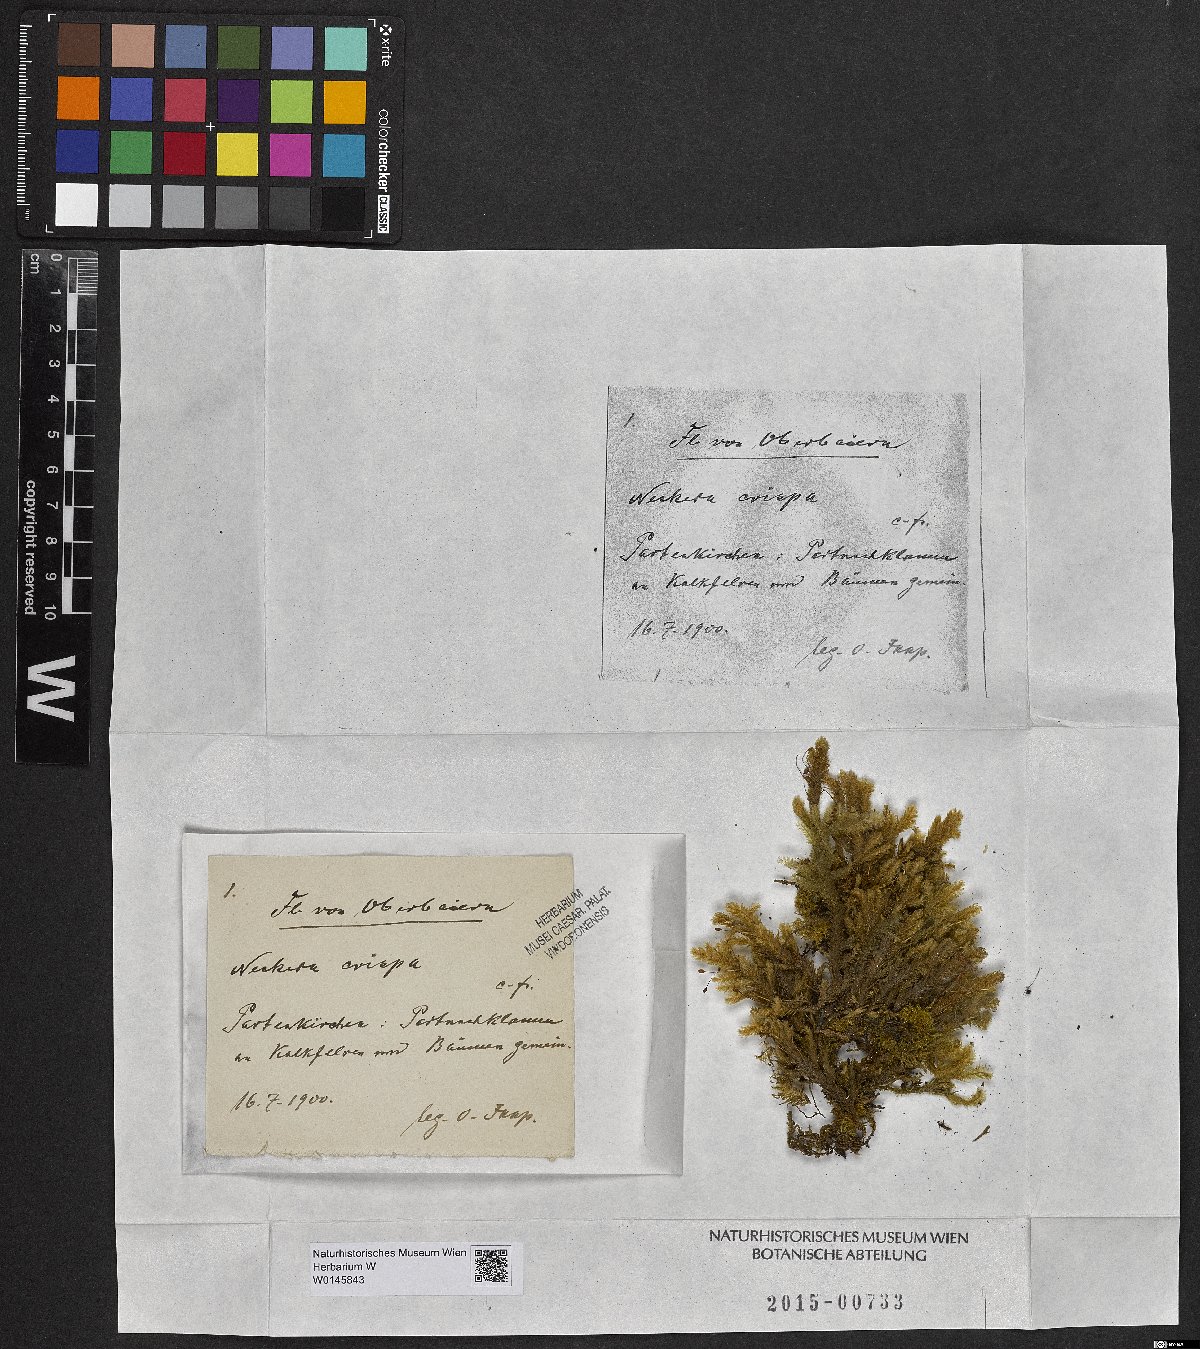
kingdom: Plantae
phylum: Bryophyta
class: Bryopsida
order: Hypnales
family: Neckeraceae
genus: Exsertotheca
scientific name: Exsertotheca crispa
